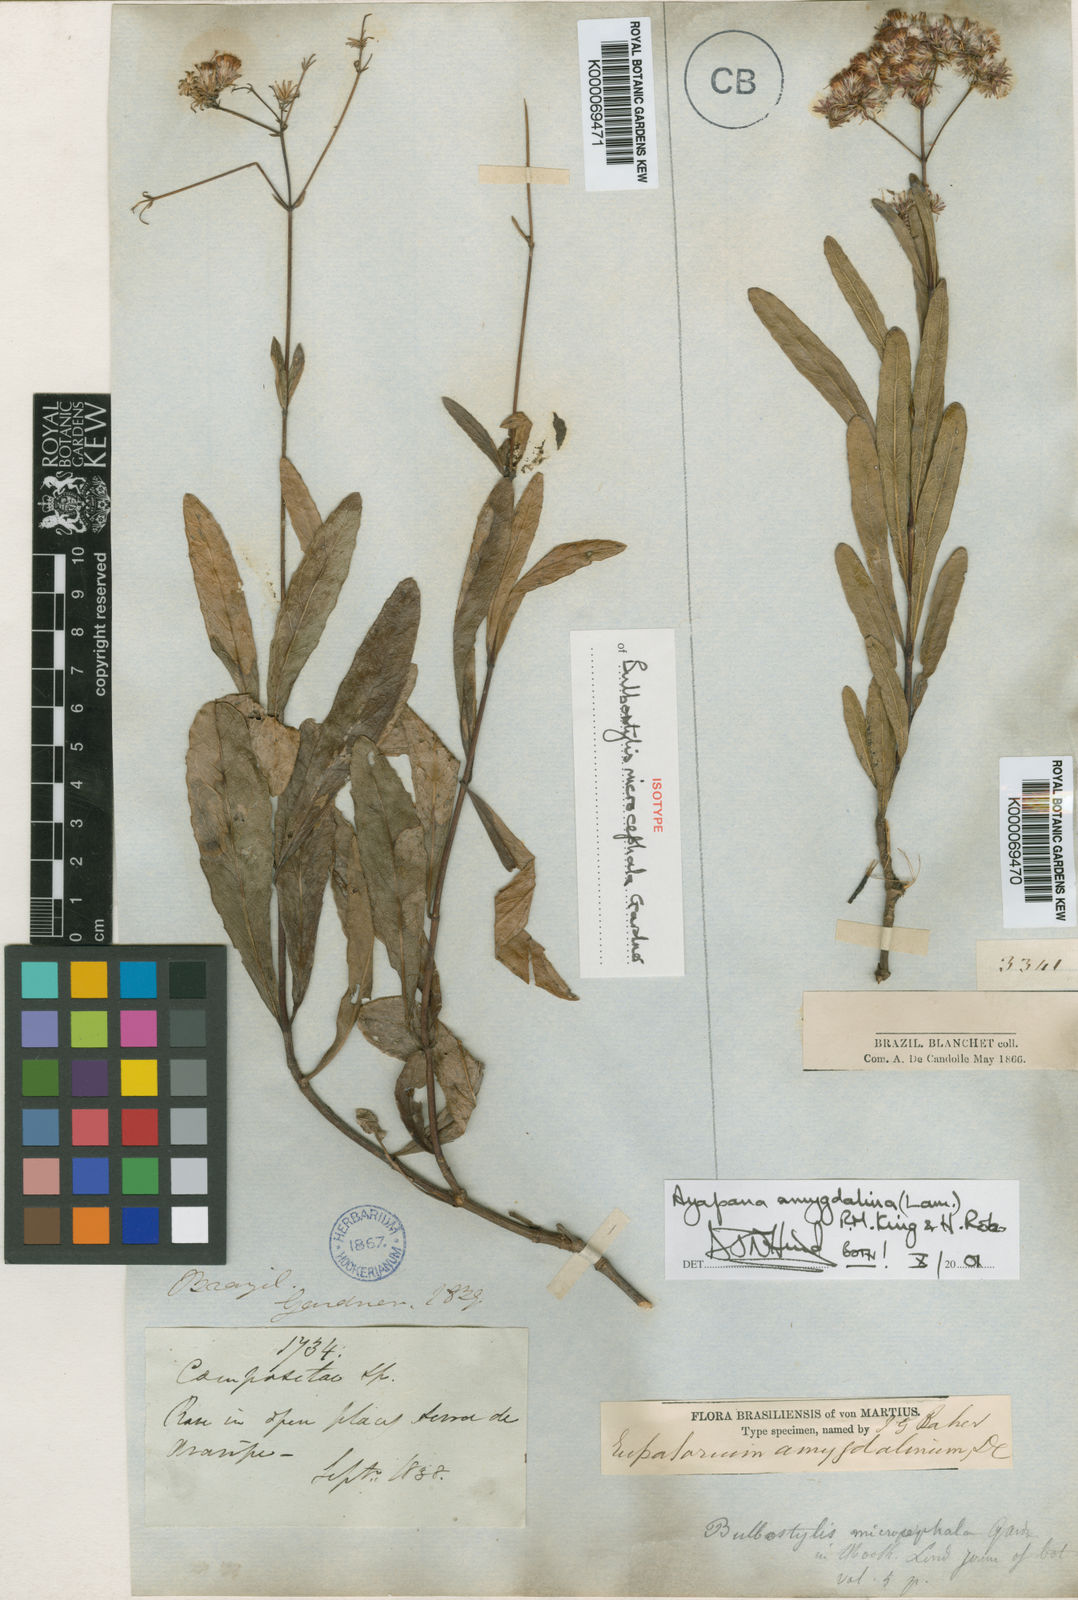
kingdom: Plantae
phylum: Tracheophyta
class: Magnoliopsida
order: Asterales
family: Asteraceae
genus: Ayapana
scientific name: Ayapana amygdalina
